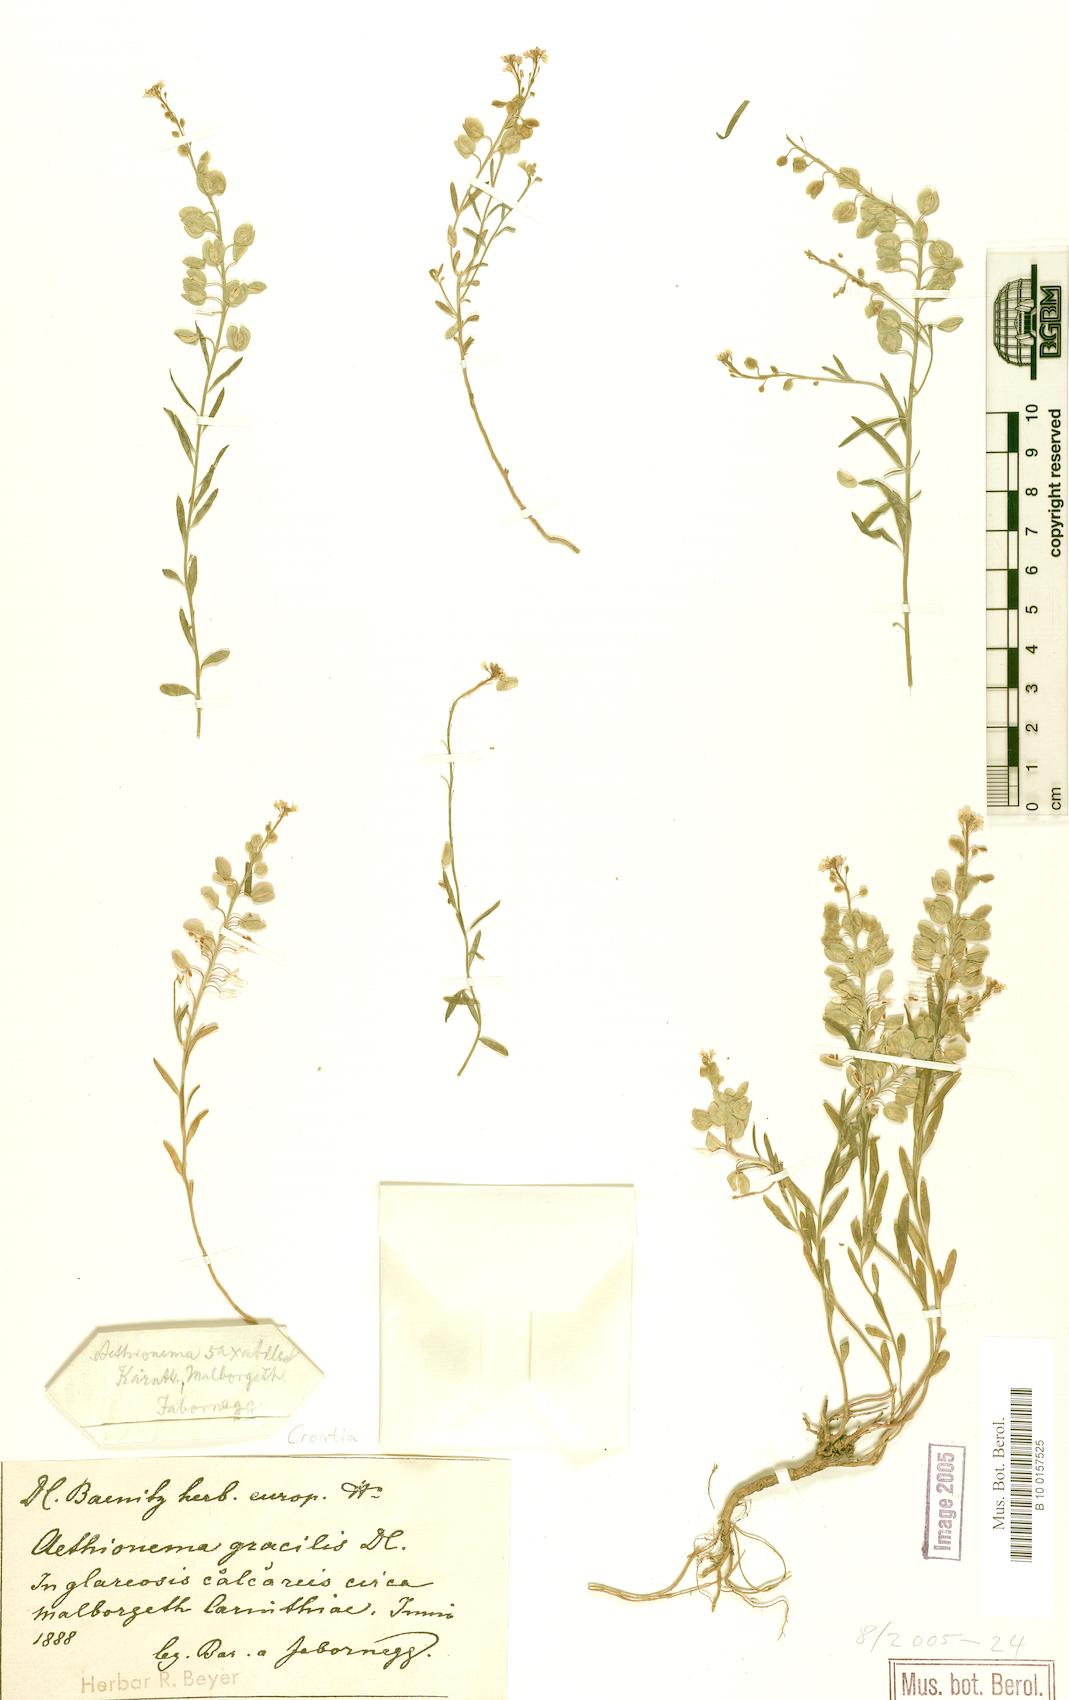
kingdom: Plantae
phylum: Tracheophyta
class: Magnoliopsida
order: Brassicales
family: Brassicaceae
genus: Aethionema
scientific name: Aethionema saxatile
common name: Burnt candytuft
